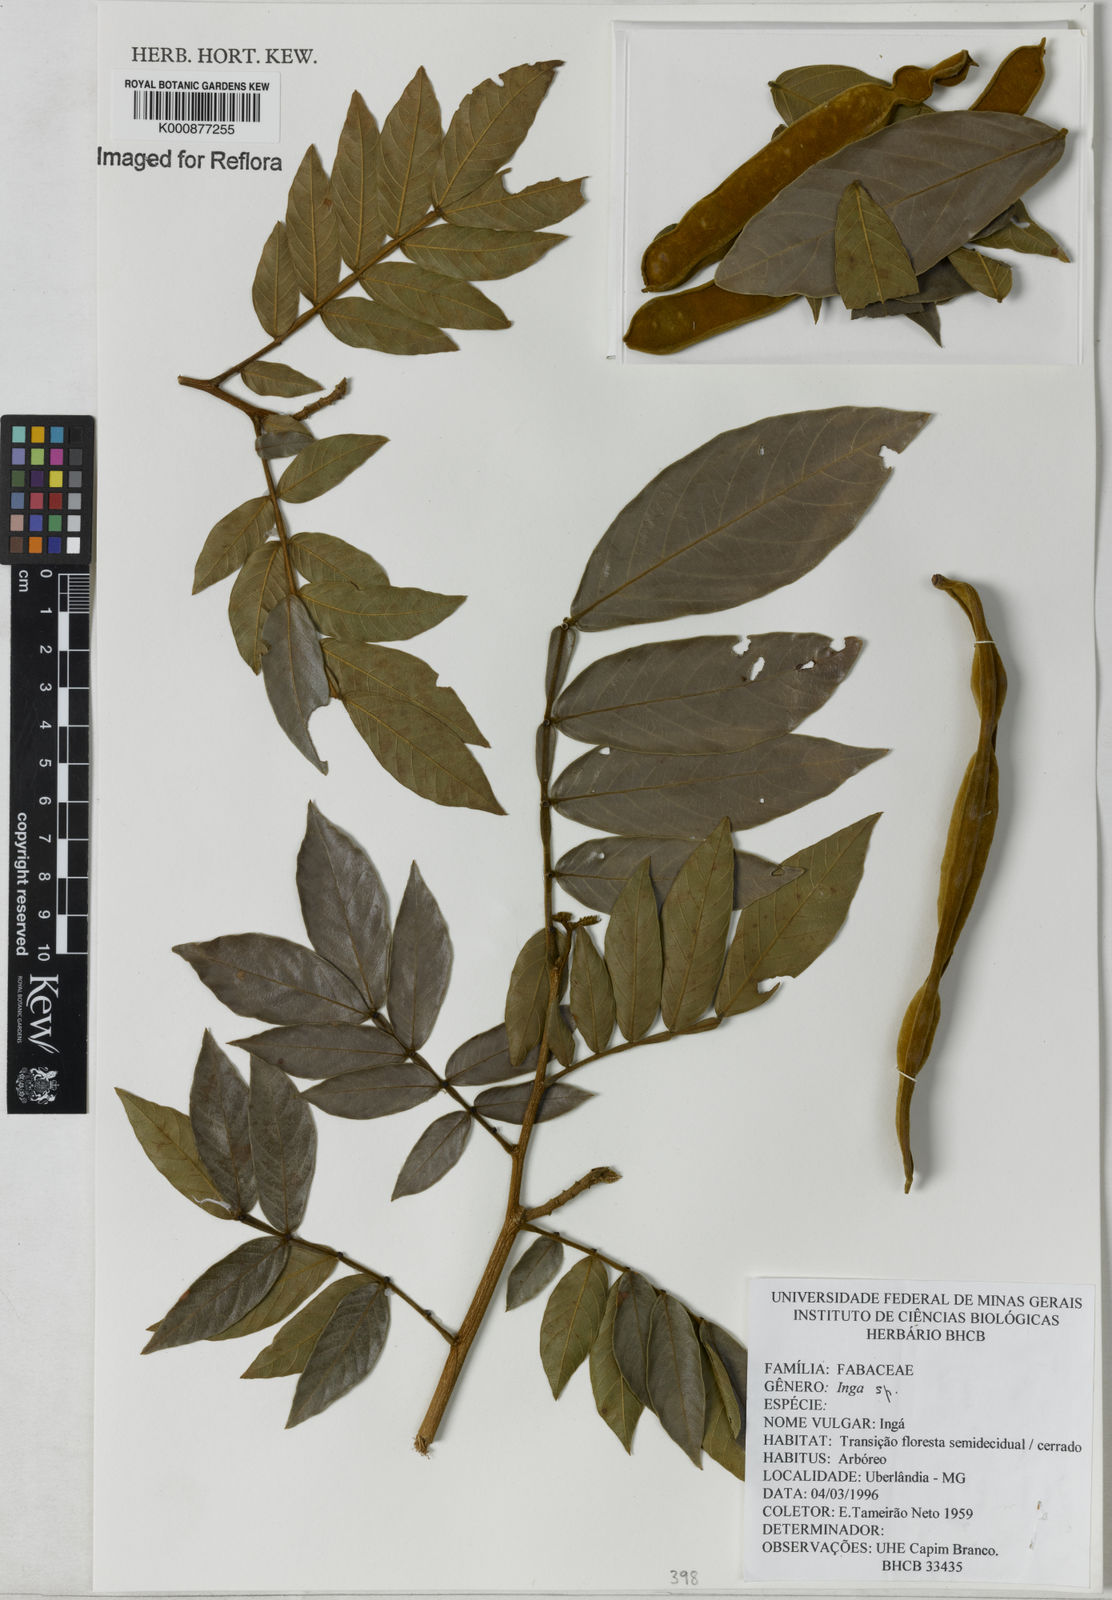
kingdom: Plantae
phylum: Tracheophyta
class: Magnoliopsida
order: Fabales
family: Fabaceae
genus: Inga
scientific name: Inga
